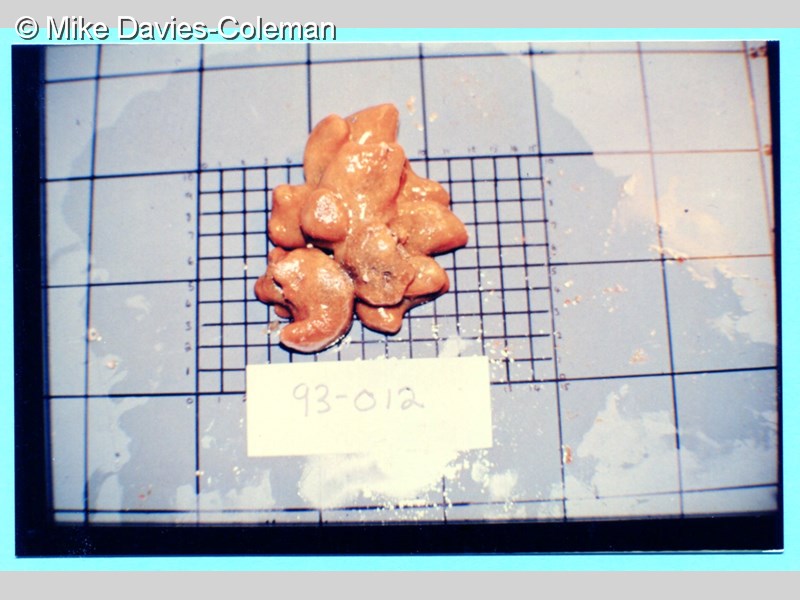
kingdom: Animalia
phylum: Chordata
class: Ascidiacea
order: Aplousobranchia
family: Pseudodistomidae
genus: Pseudodistoma
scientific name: Pseudodistoma
